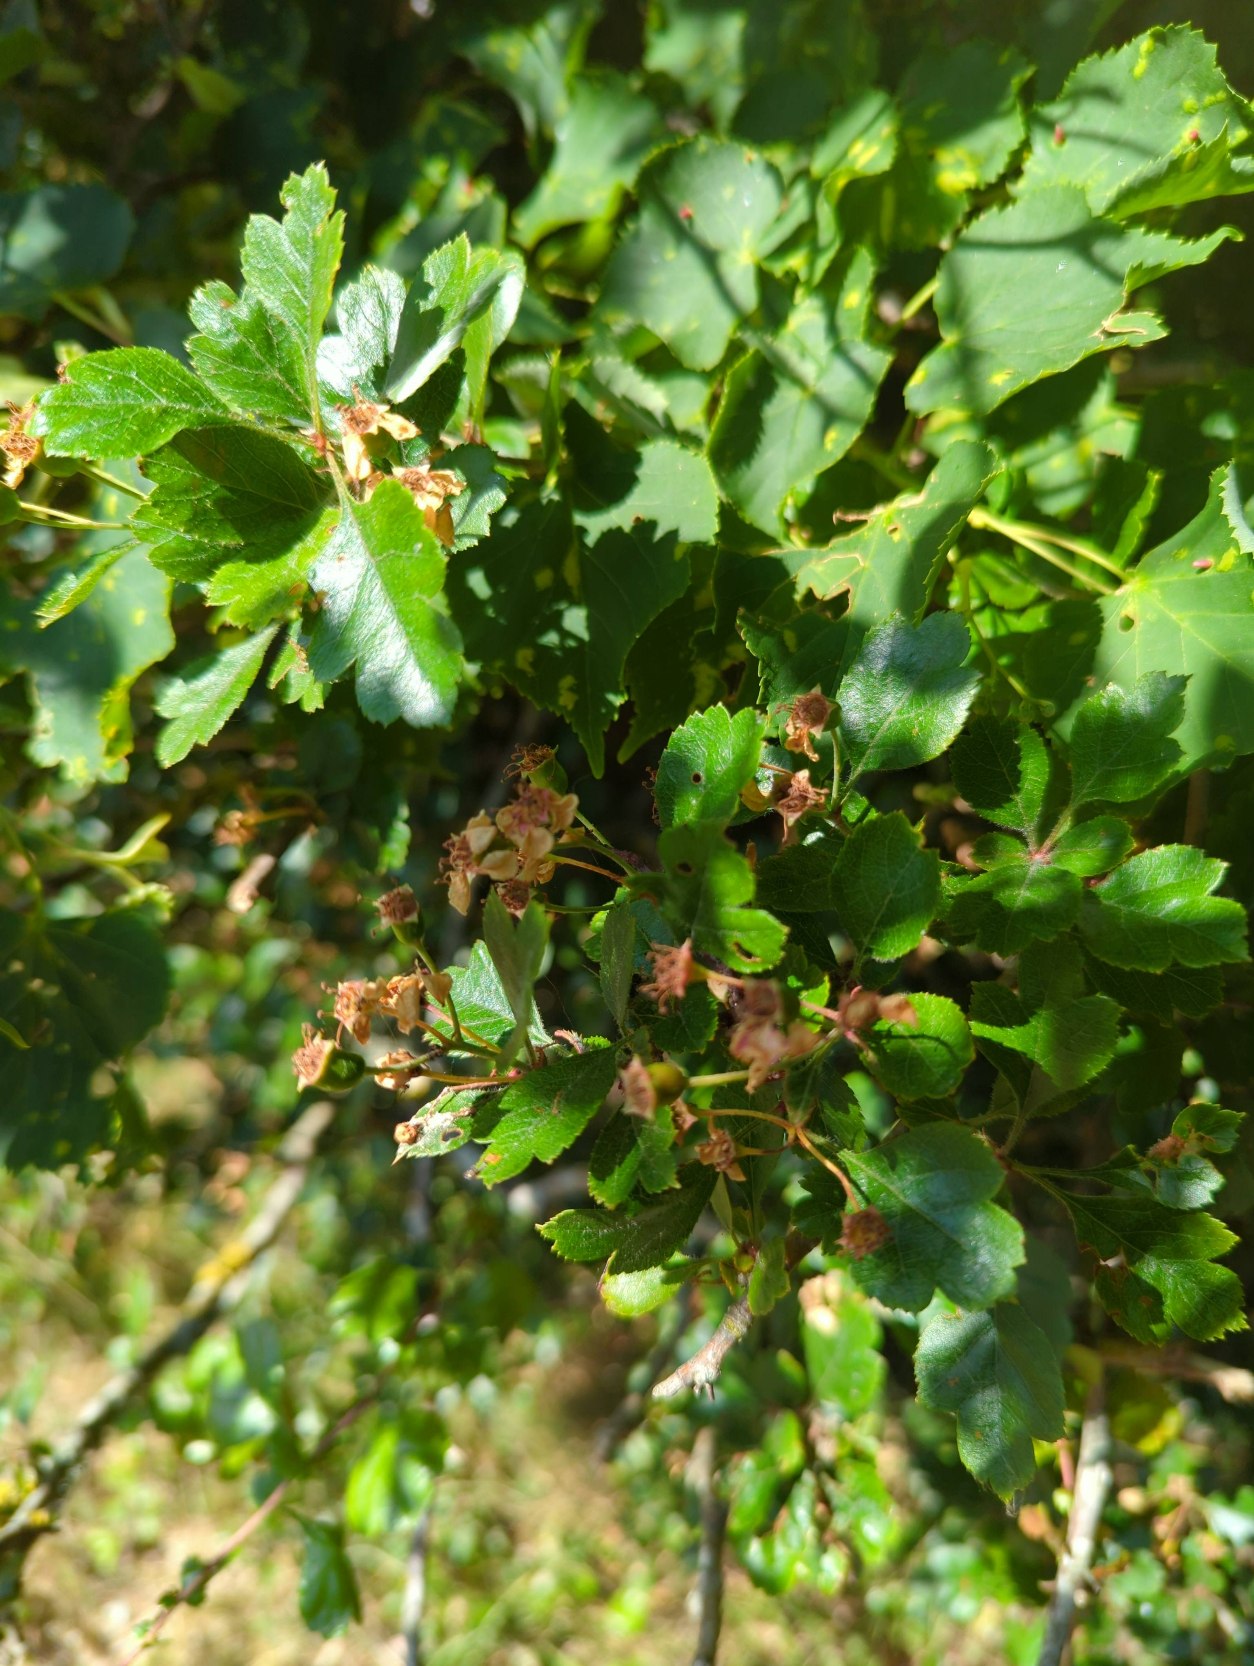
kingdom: Plantae
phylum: Tracheophyta
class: Magnoliopsida
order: Rosales
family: Rosaceae
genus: Crataegus
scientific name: Crataegus laevigata
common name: Almindelig hvidtjørn
